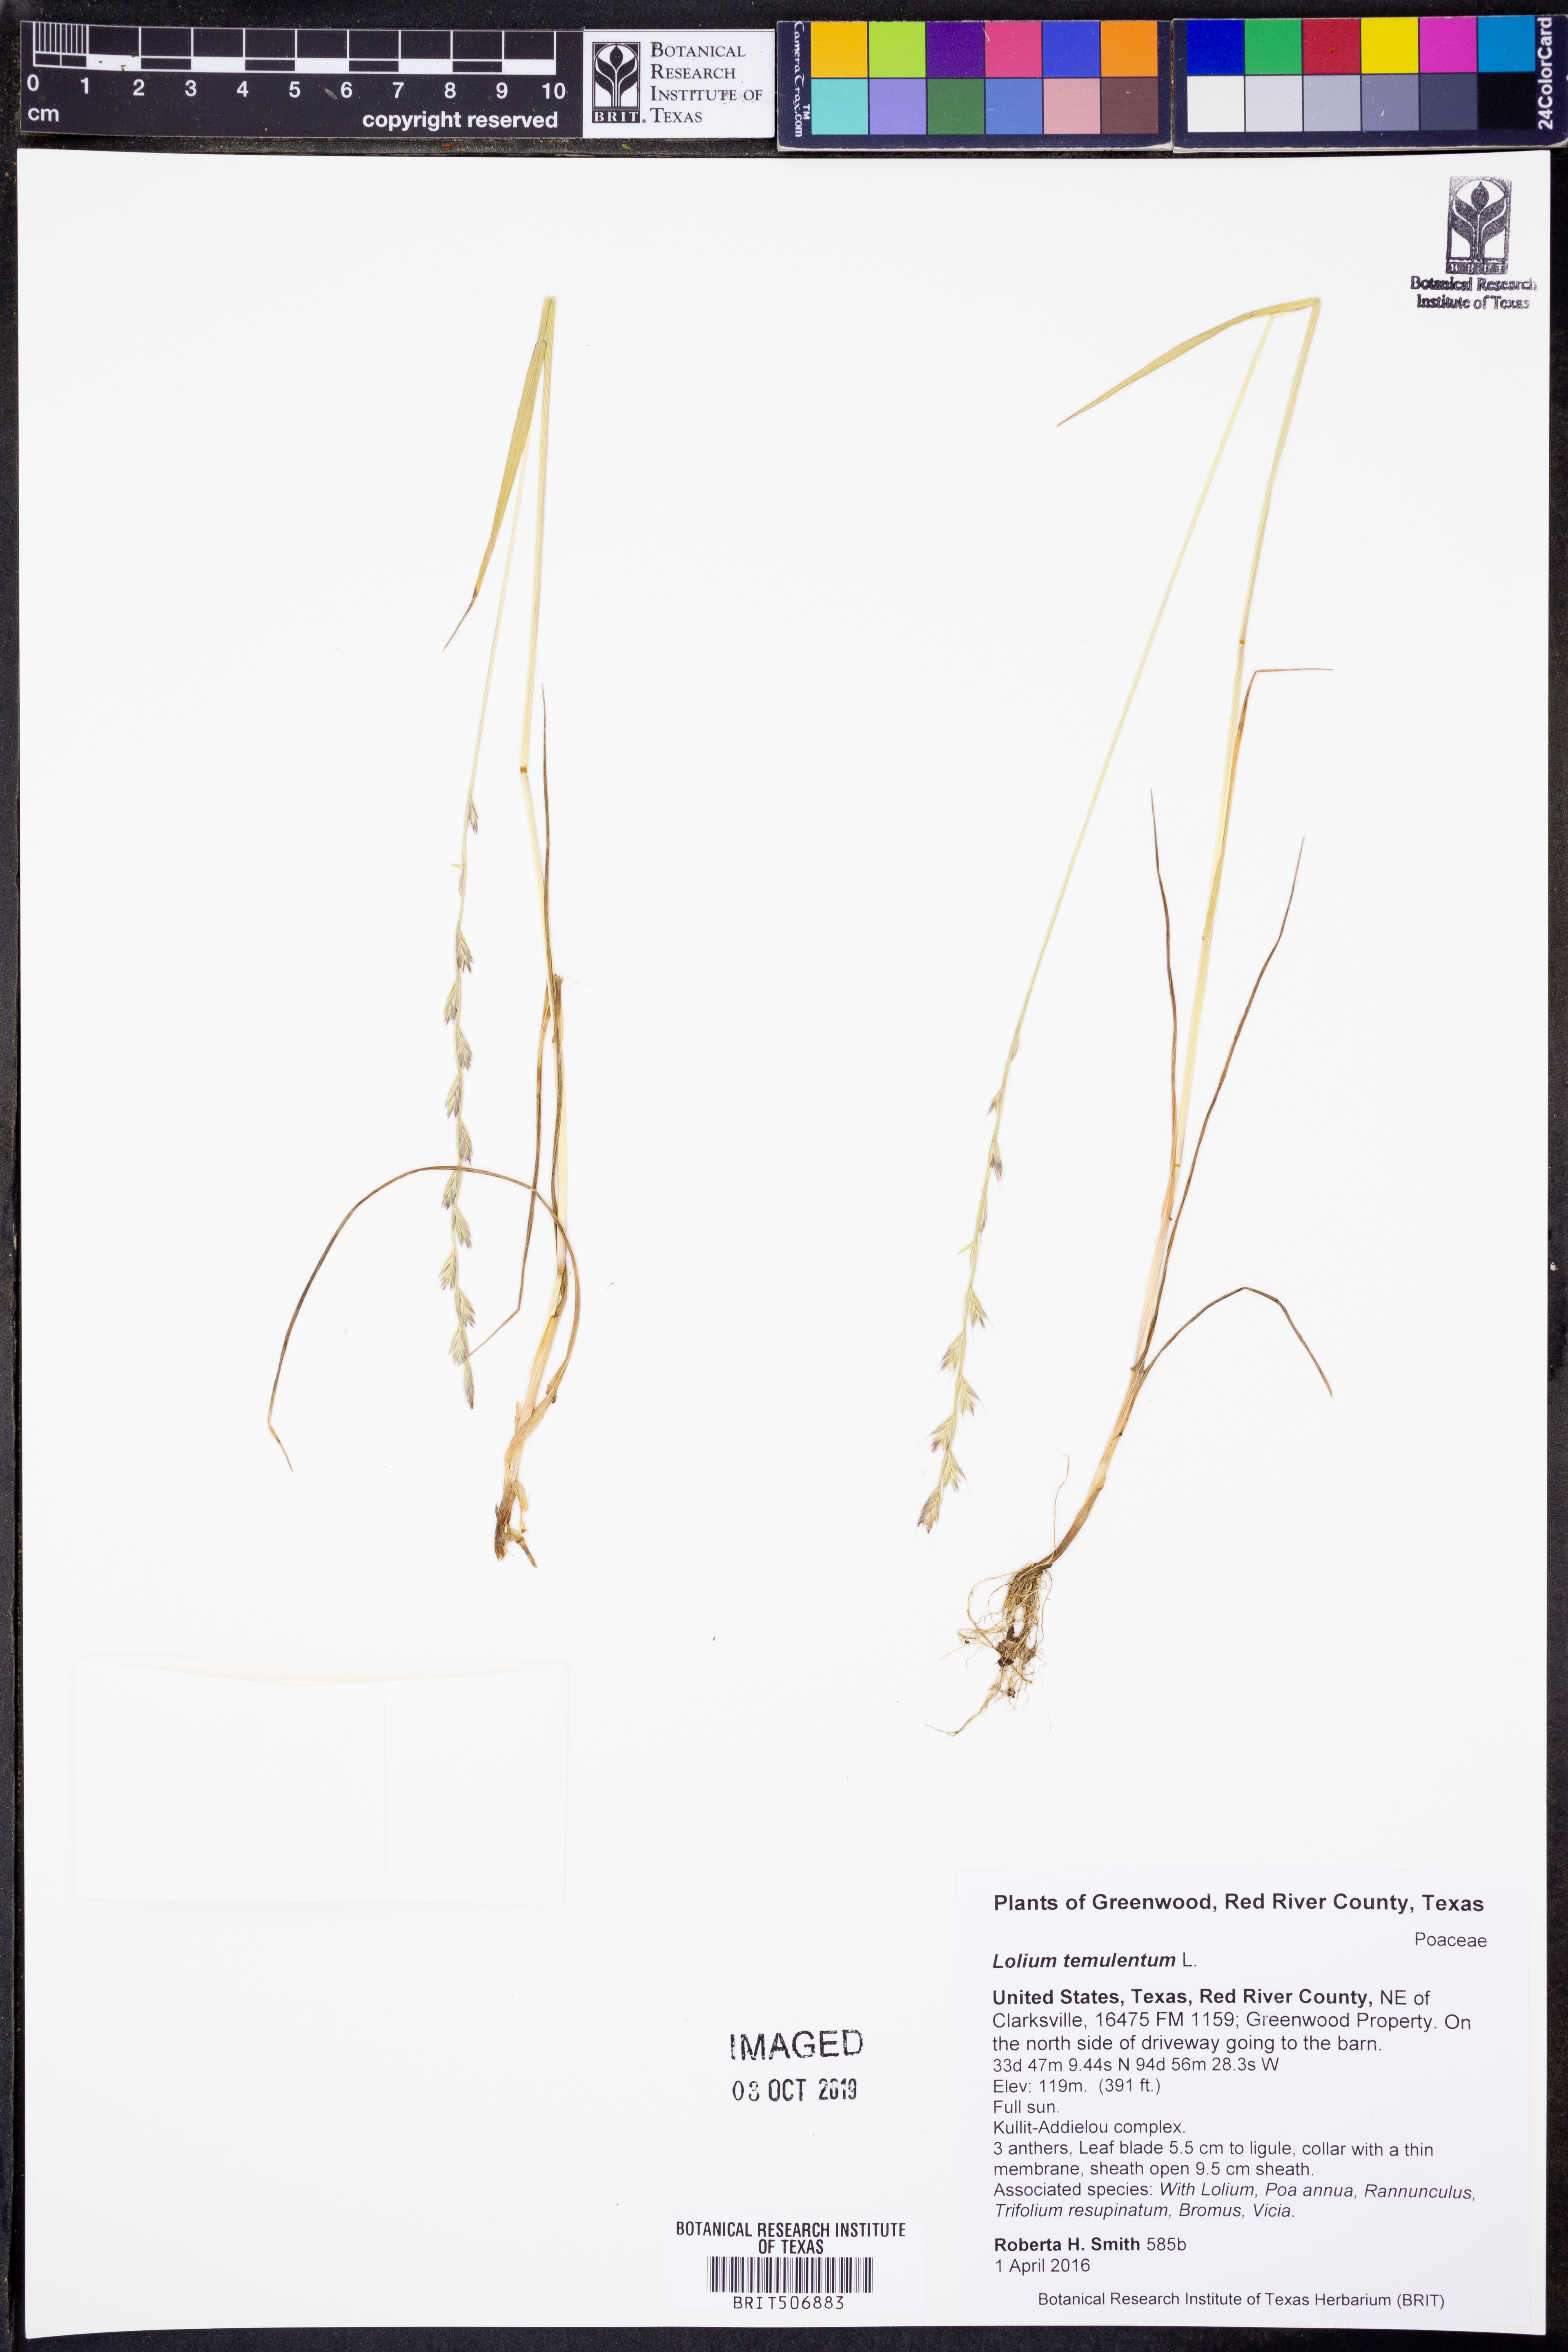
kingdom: Plantae
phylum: Tracheophyta
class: Liliopsida
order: Poales
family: Poaceae
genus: Lolium
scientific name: Lolium temulentum
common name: Darnel
